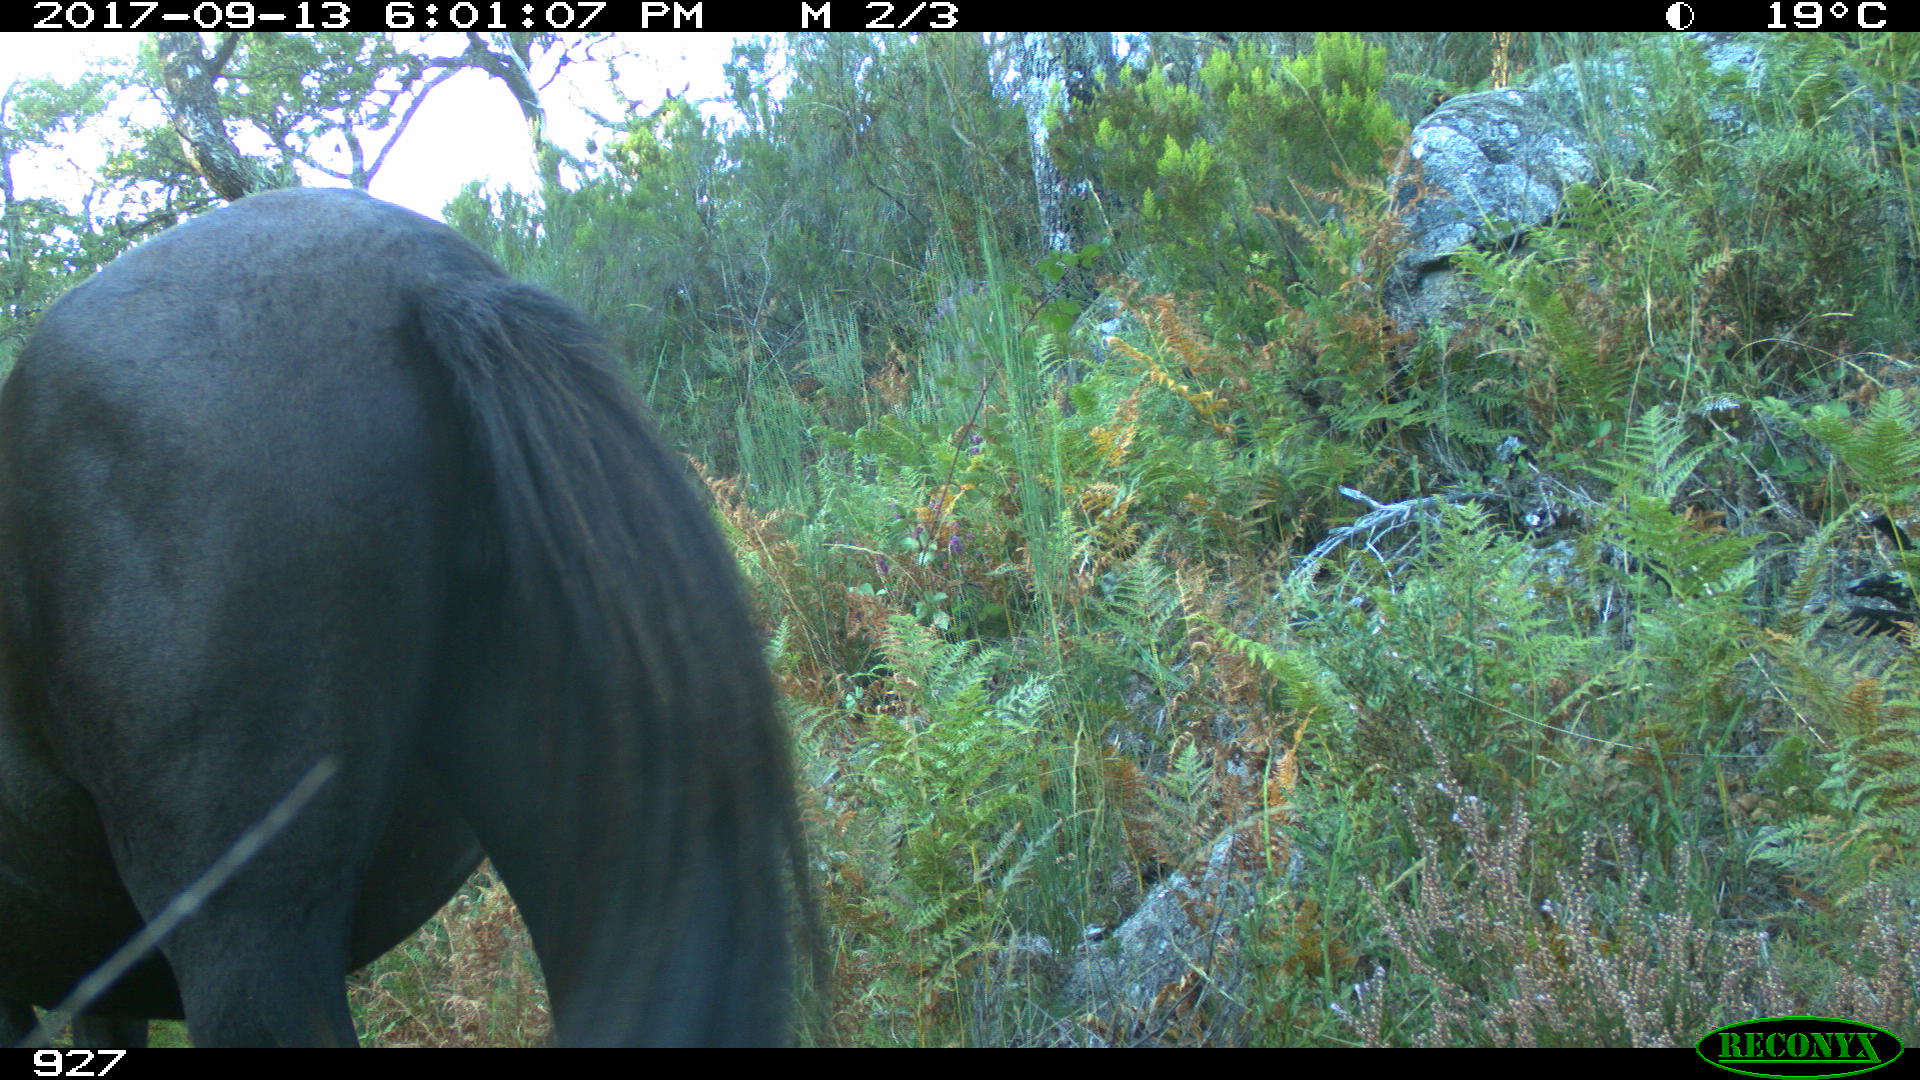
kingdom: Animalia
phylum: Chordata
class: Mammalia
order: Perissodactyla
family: Equidae
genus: Equus
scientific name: Equus caballus
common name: Horse
